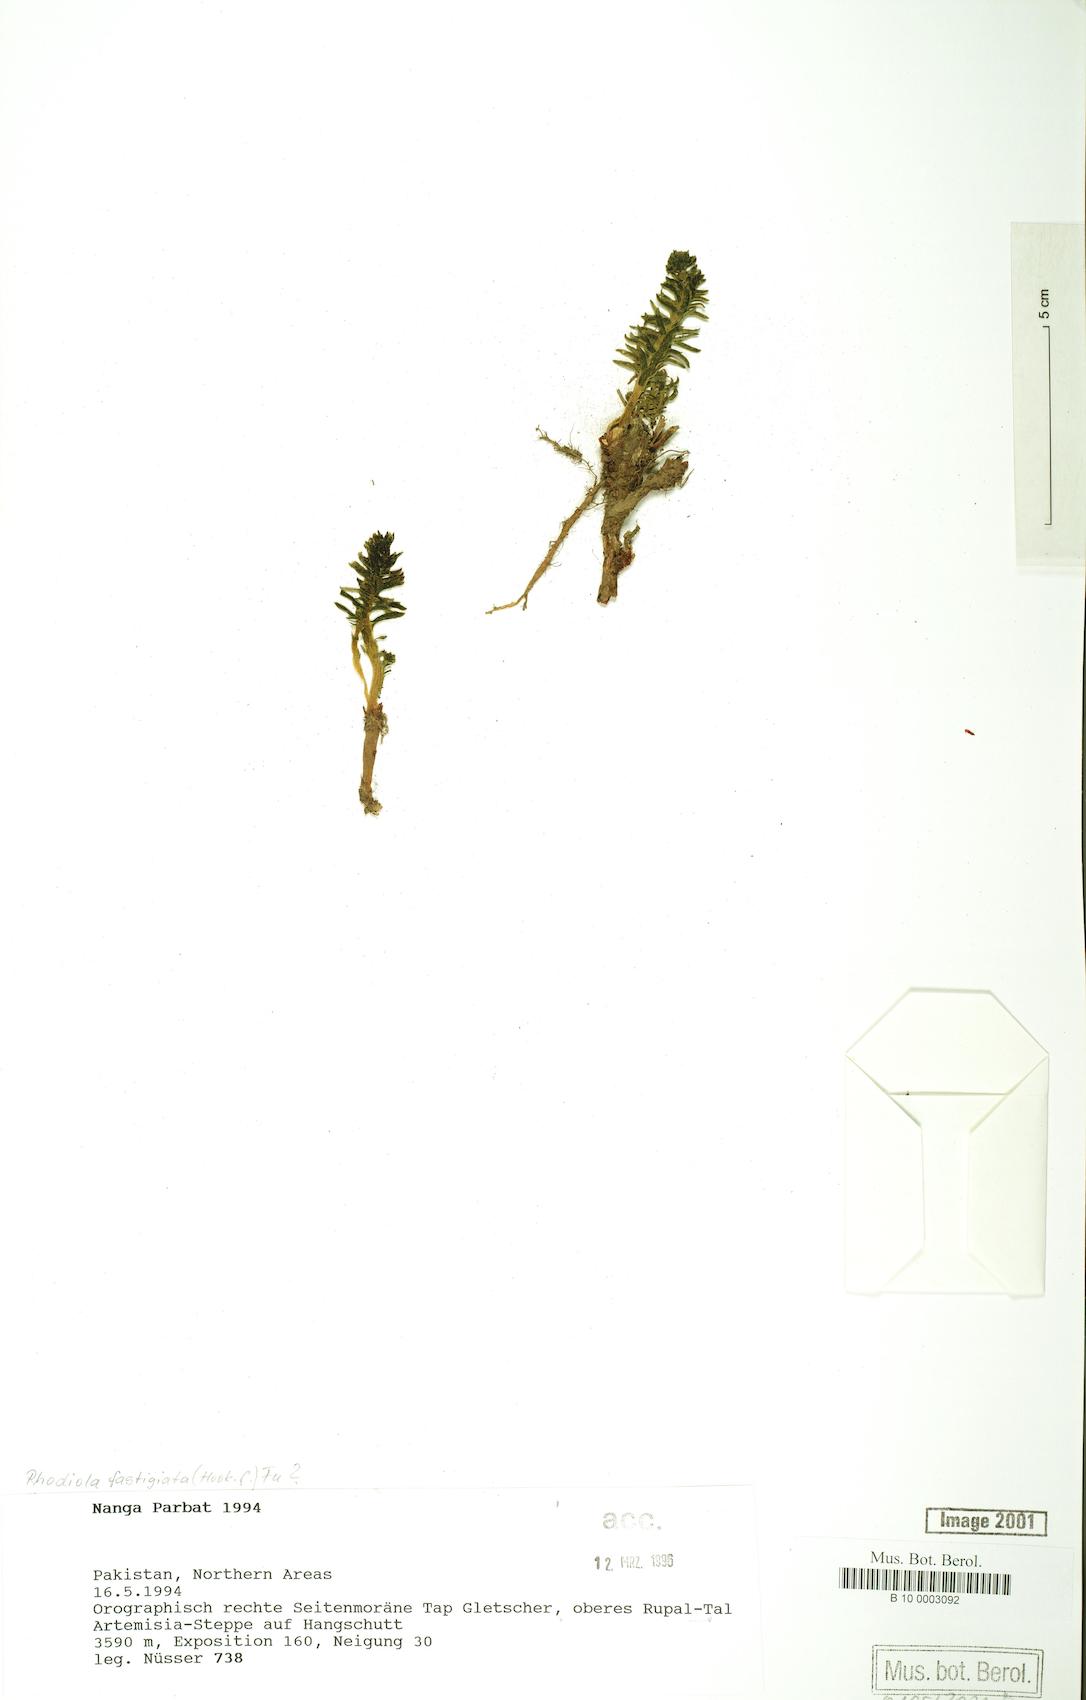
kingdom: Plantae
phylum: Tracheophyta
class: Magnoliopsida
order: Saxifragales
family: Crassulaceae
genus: Rhodiola
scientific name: Rhodiola fastigiata
